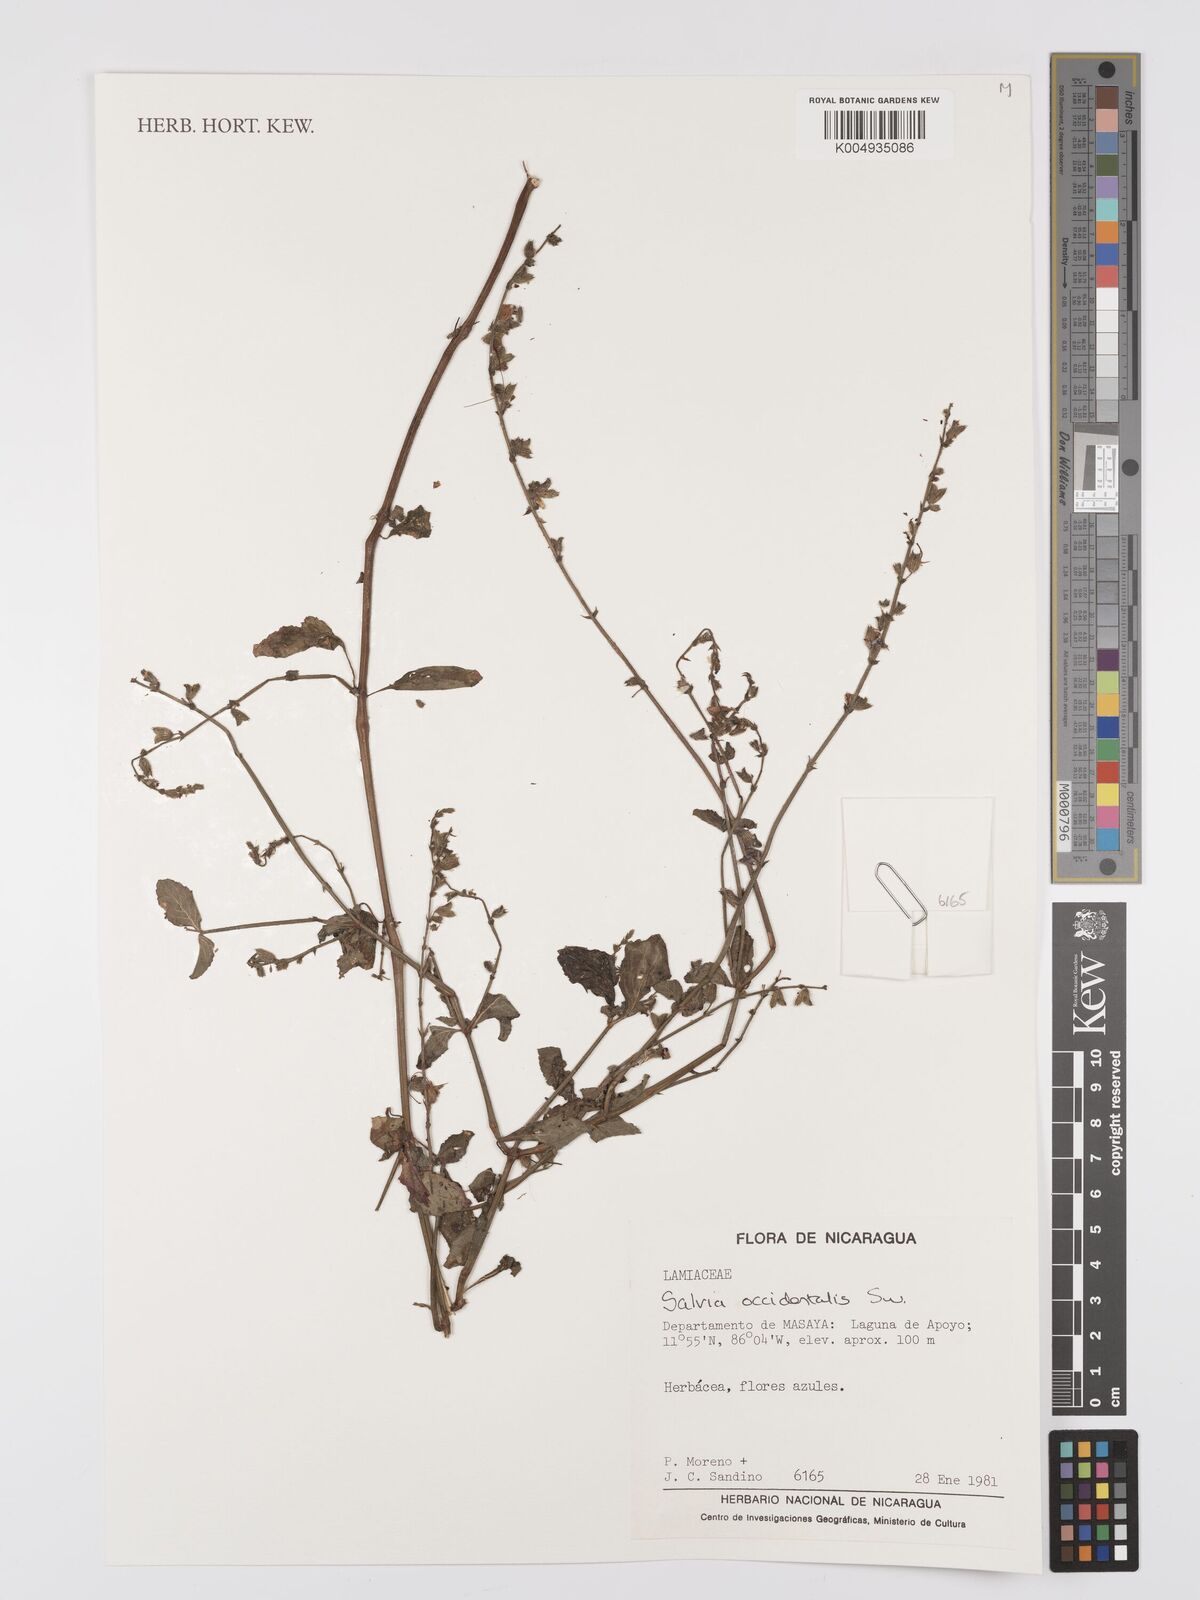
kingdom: Plantae
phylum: Tracheophyta
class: Magnoliopsida
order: Lamiales
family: Lamiaceae
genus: Salvia
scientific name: Salvia occidentalis
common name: West indian sage
